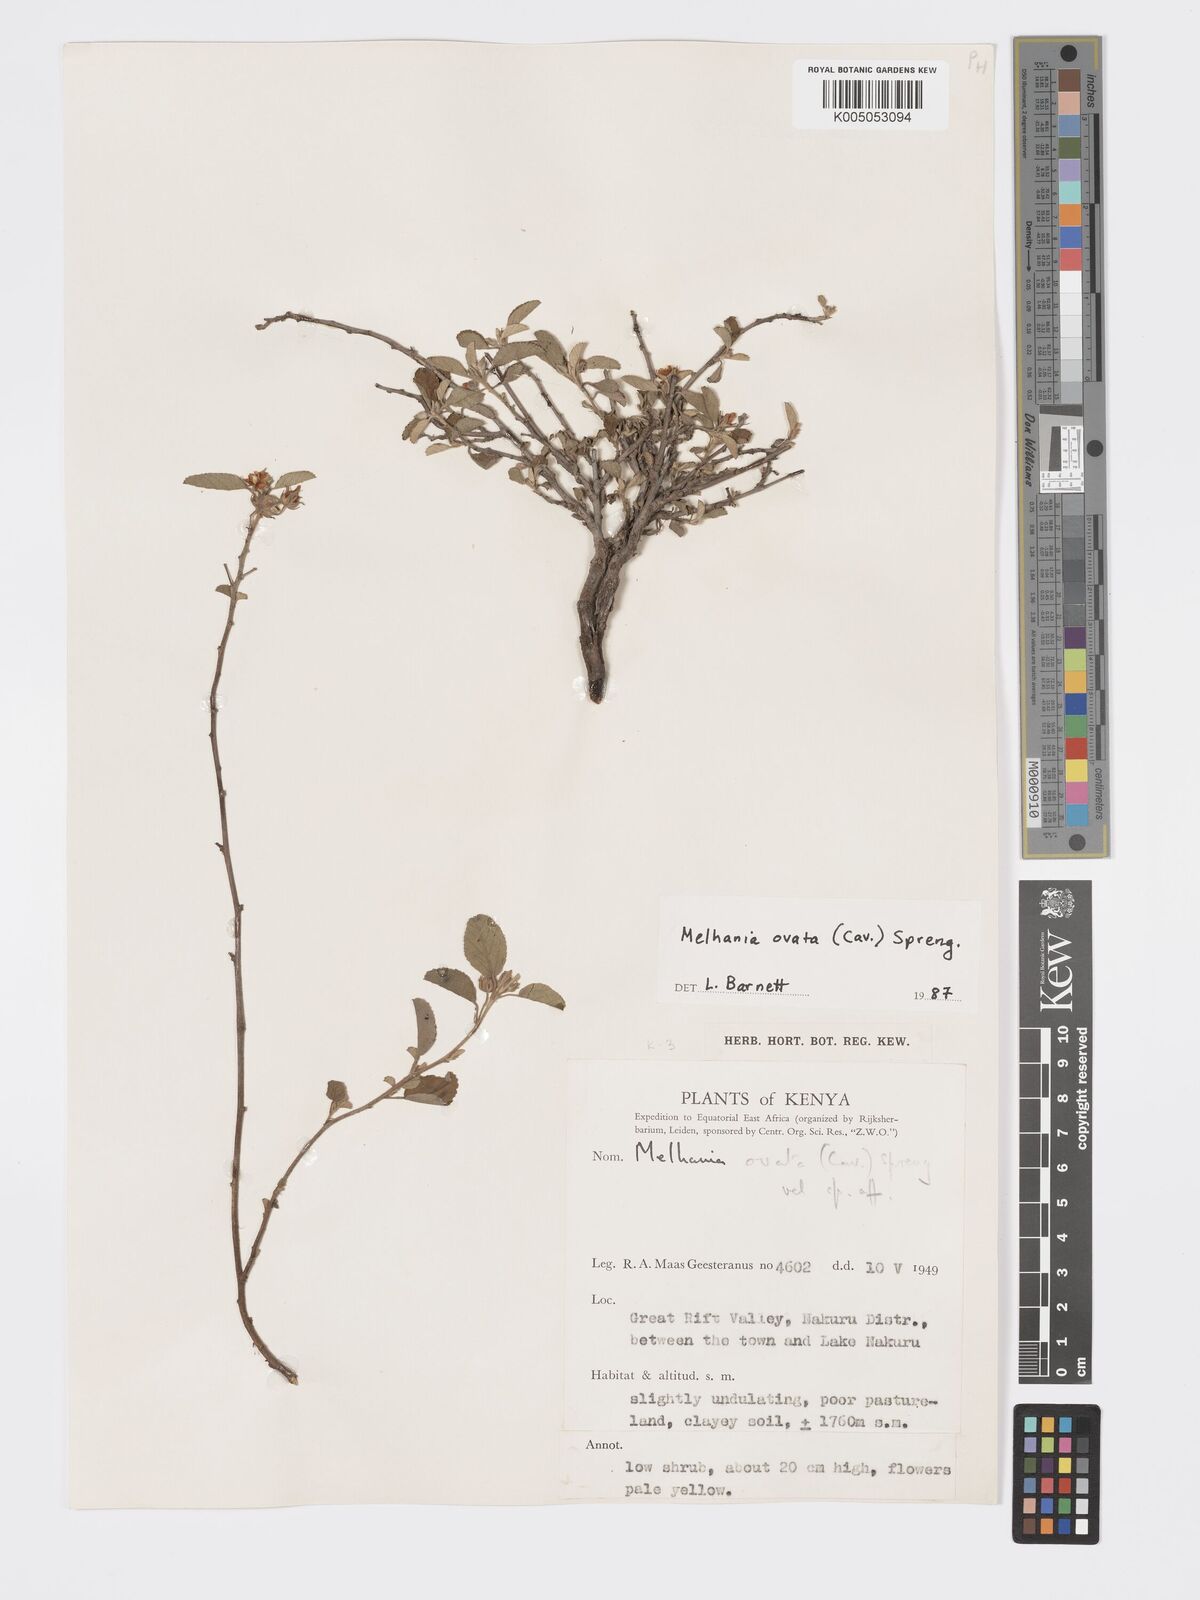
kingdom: Plantae
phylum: Tracheophyta
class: Magnoliopsida
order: Malvales
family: Malvaceae
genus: Melhania
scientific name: Melhania ovata
